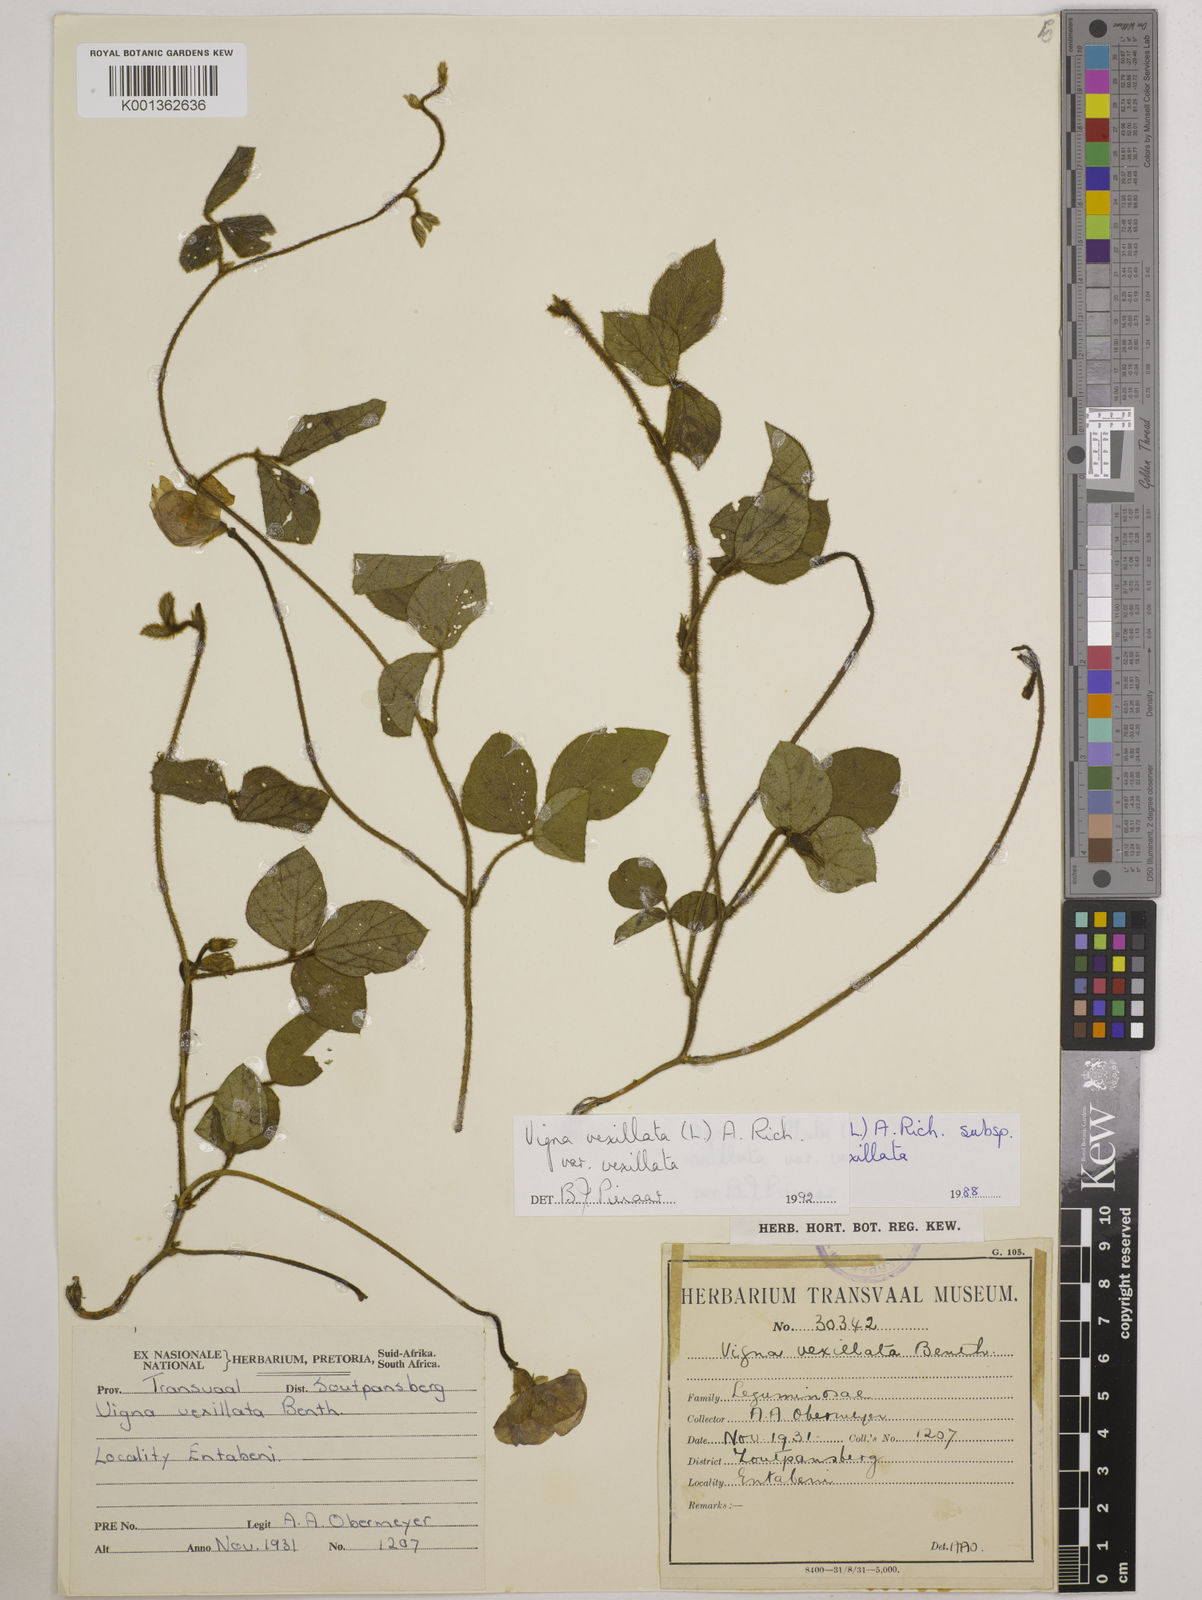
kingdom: Plantae
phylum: Tracheophyta
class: Magnoliopsida
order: Fabales
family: Fabaceae
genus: Vigna
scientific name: Vigna vexillata
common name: Zombi pea
